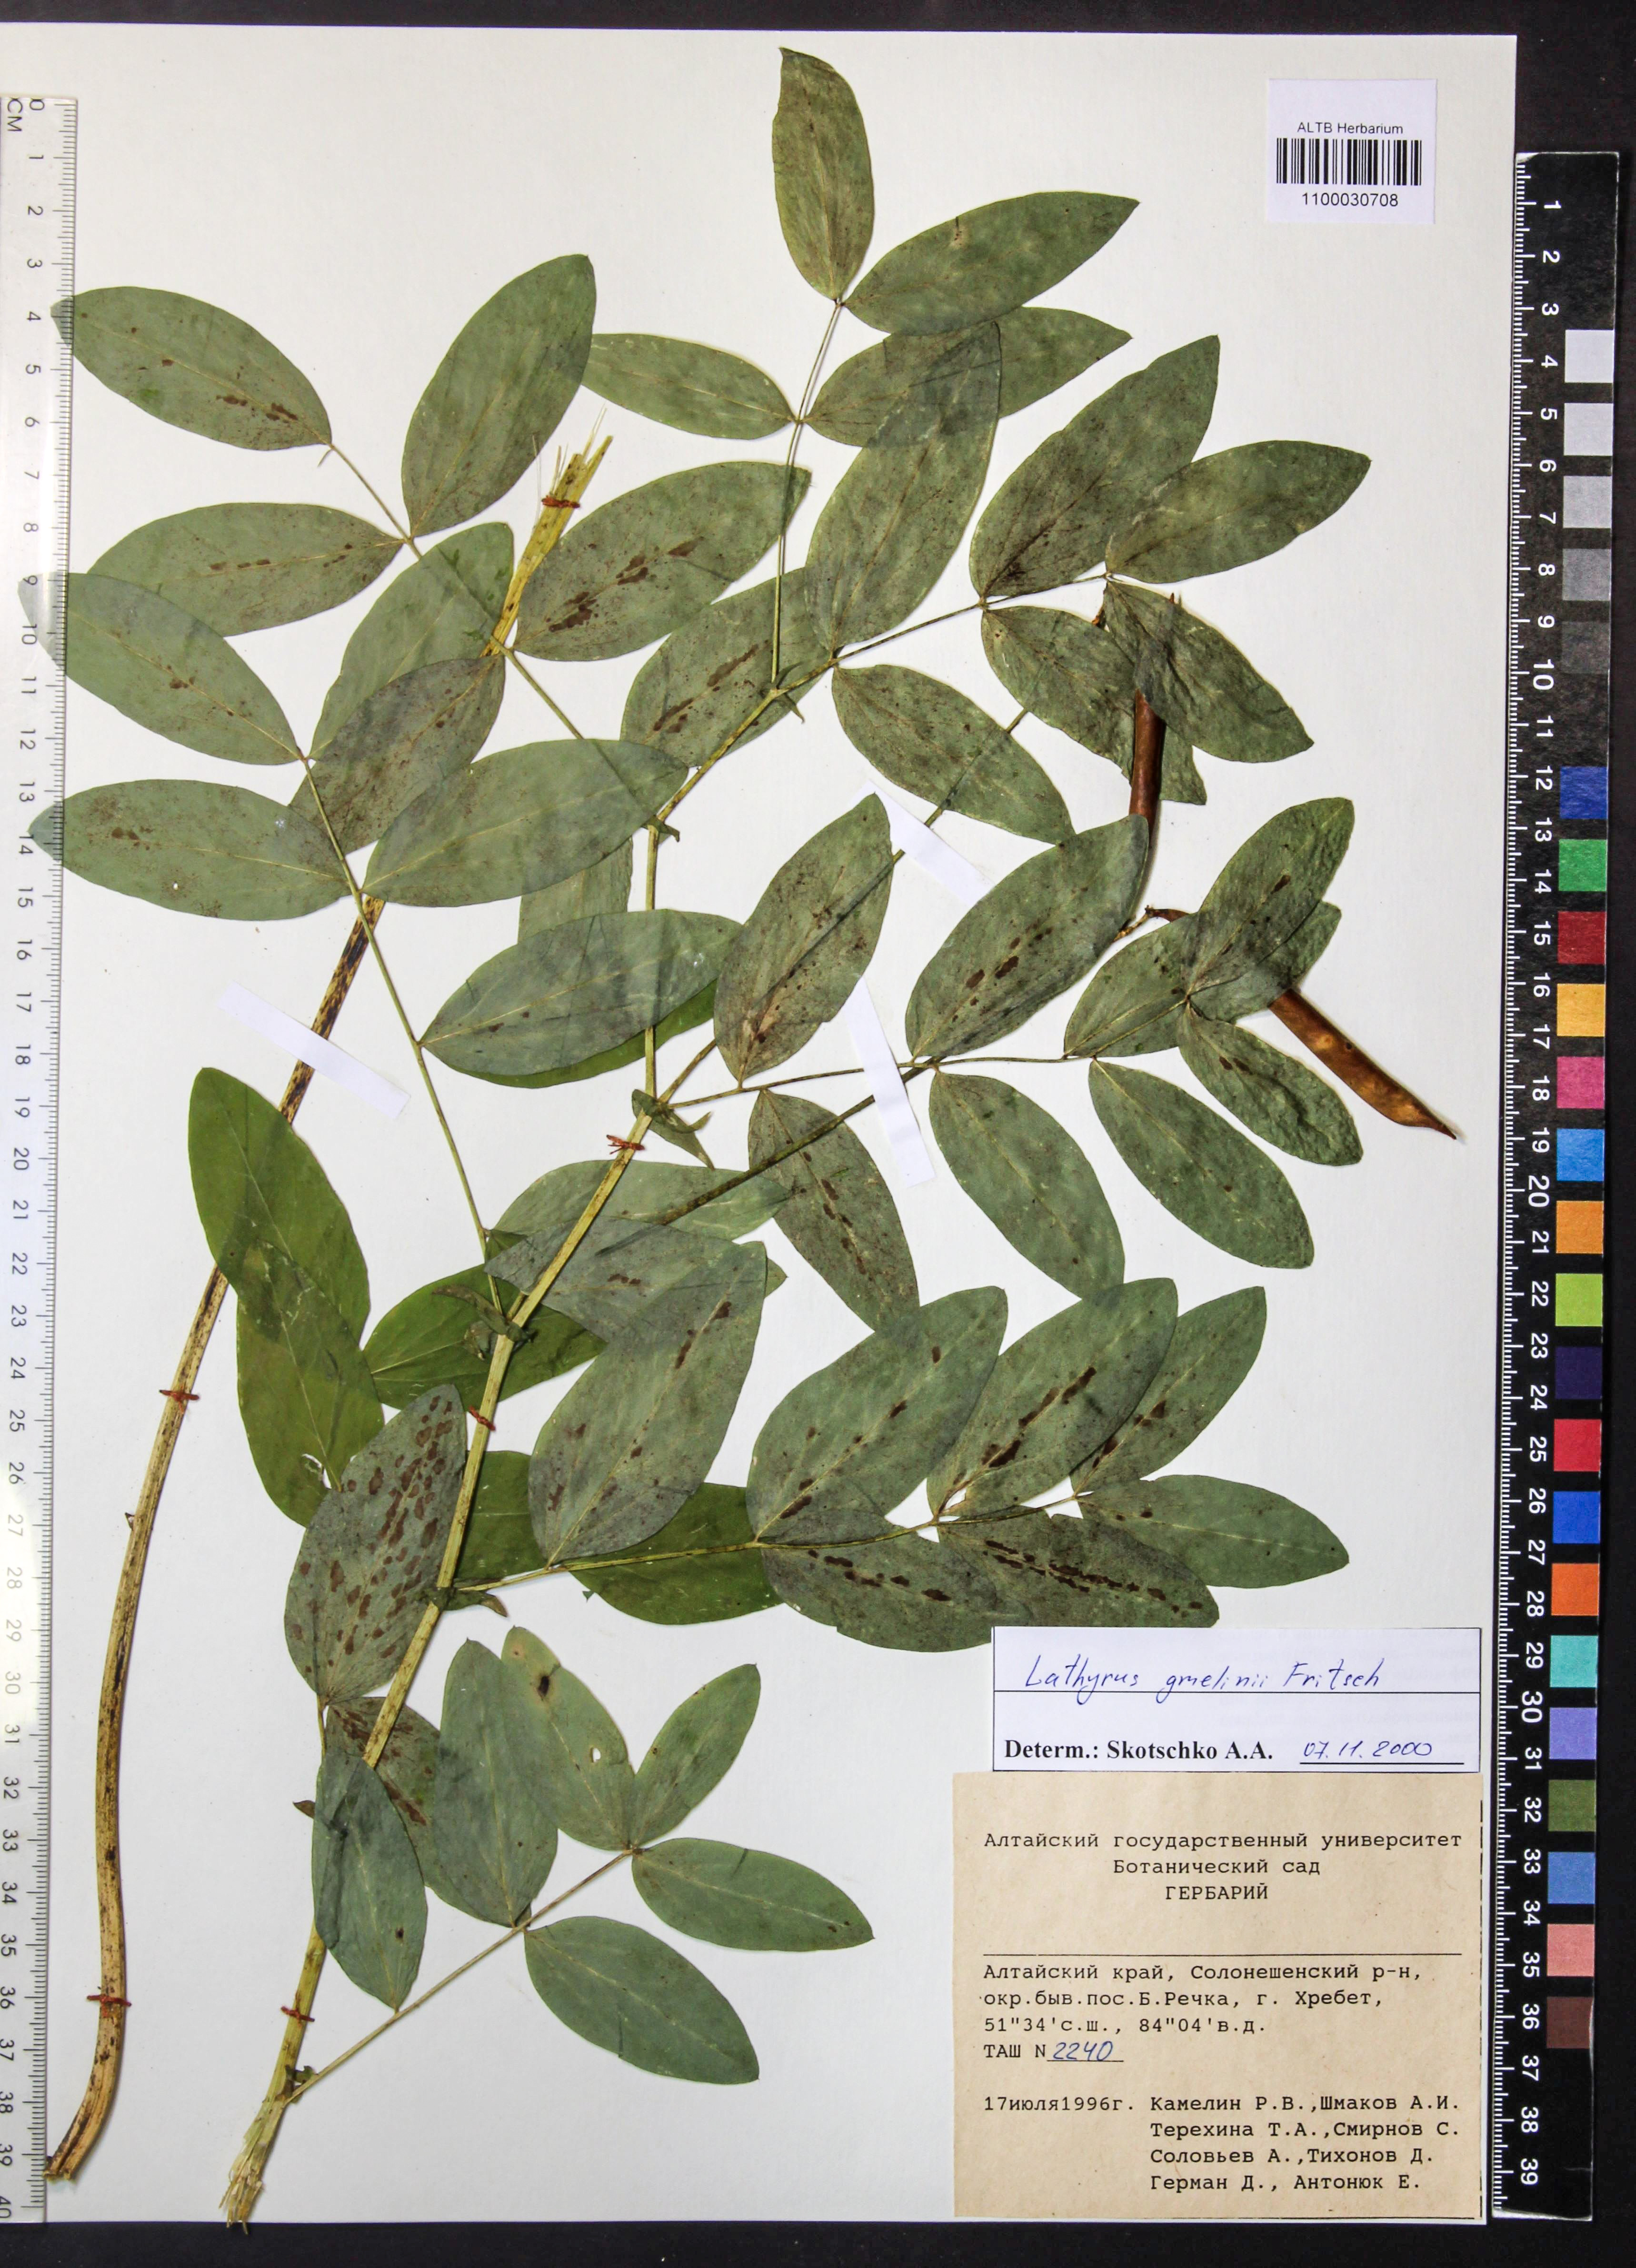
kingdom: Plantae
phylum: Tracheophyta
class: Magnoliopsida
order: Fabales
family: Fabaceae
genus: Lathyrus
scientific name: Lathyrus gmelinii
